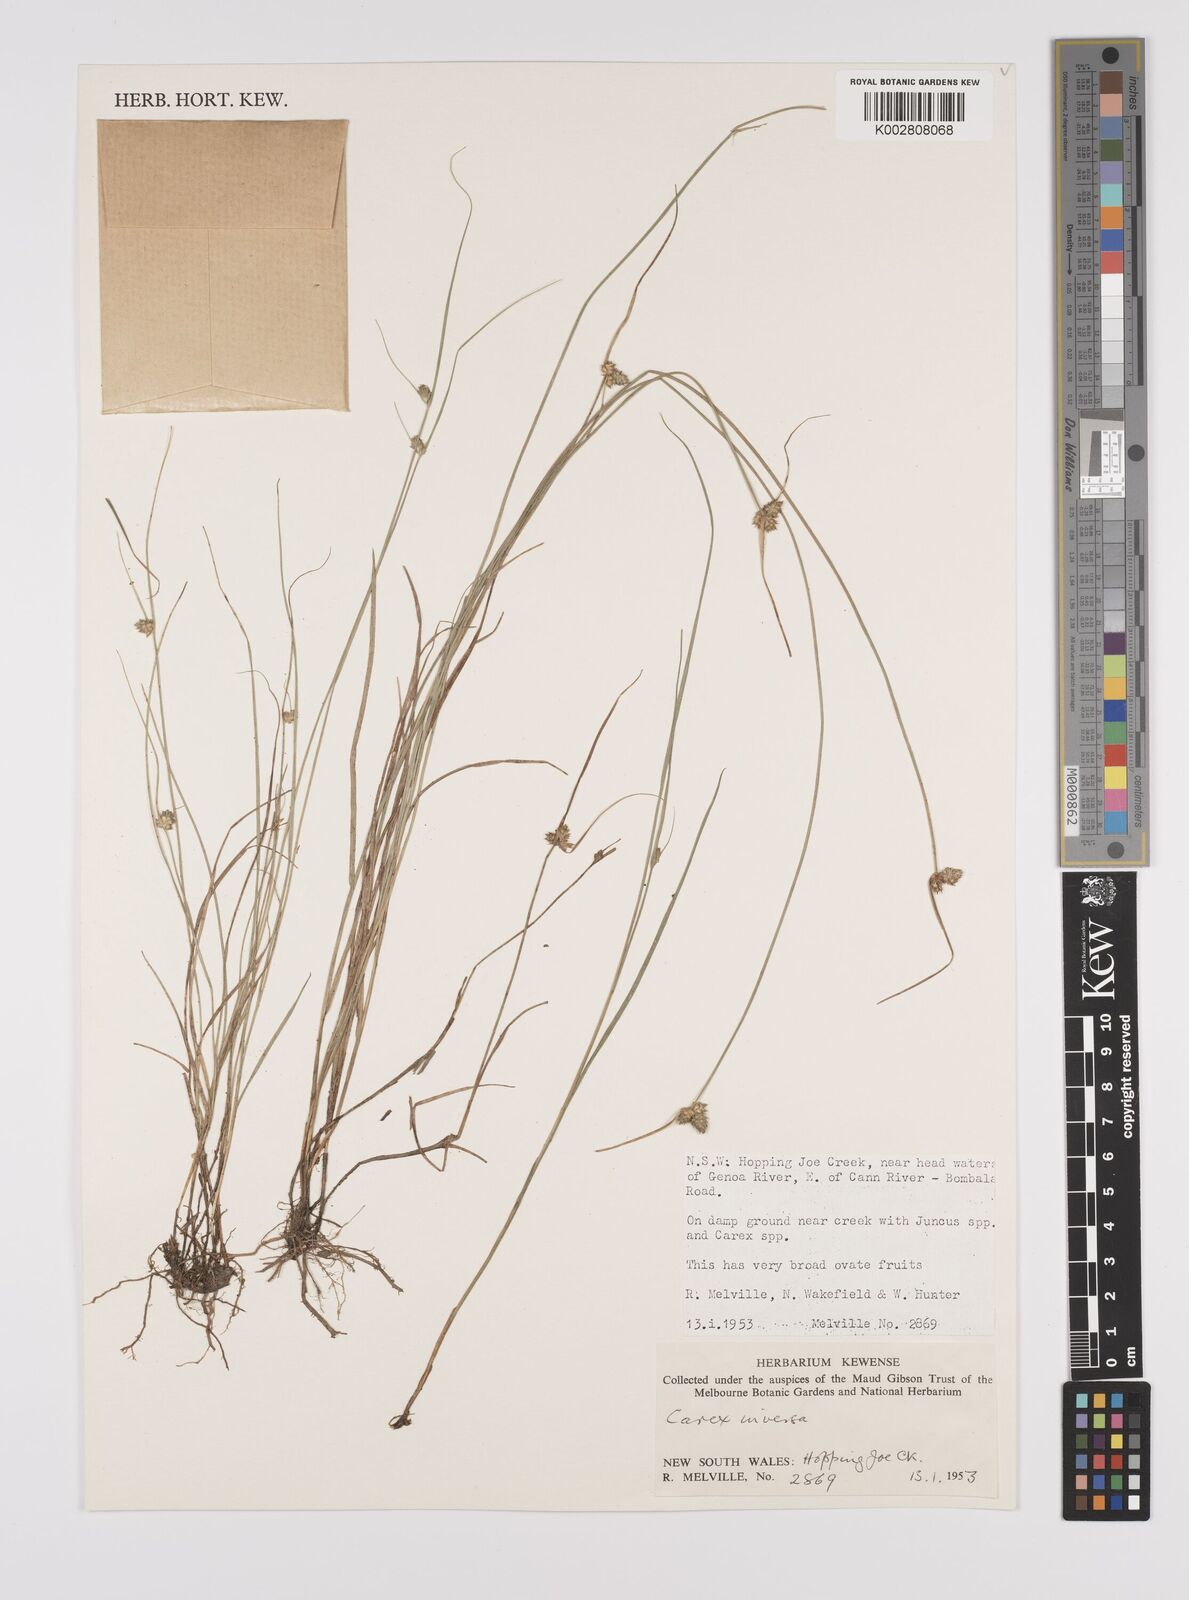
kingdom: Plantae
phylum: Tracheophyta
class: Liliopsida
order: Poales
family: Cyperaceae
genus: Carex
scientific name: Carex inversa
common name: Knob sedge
